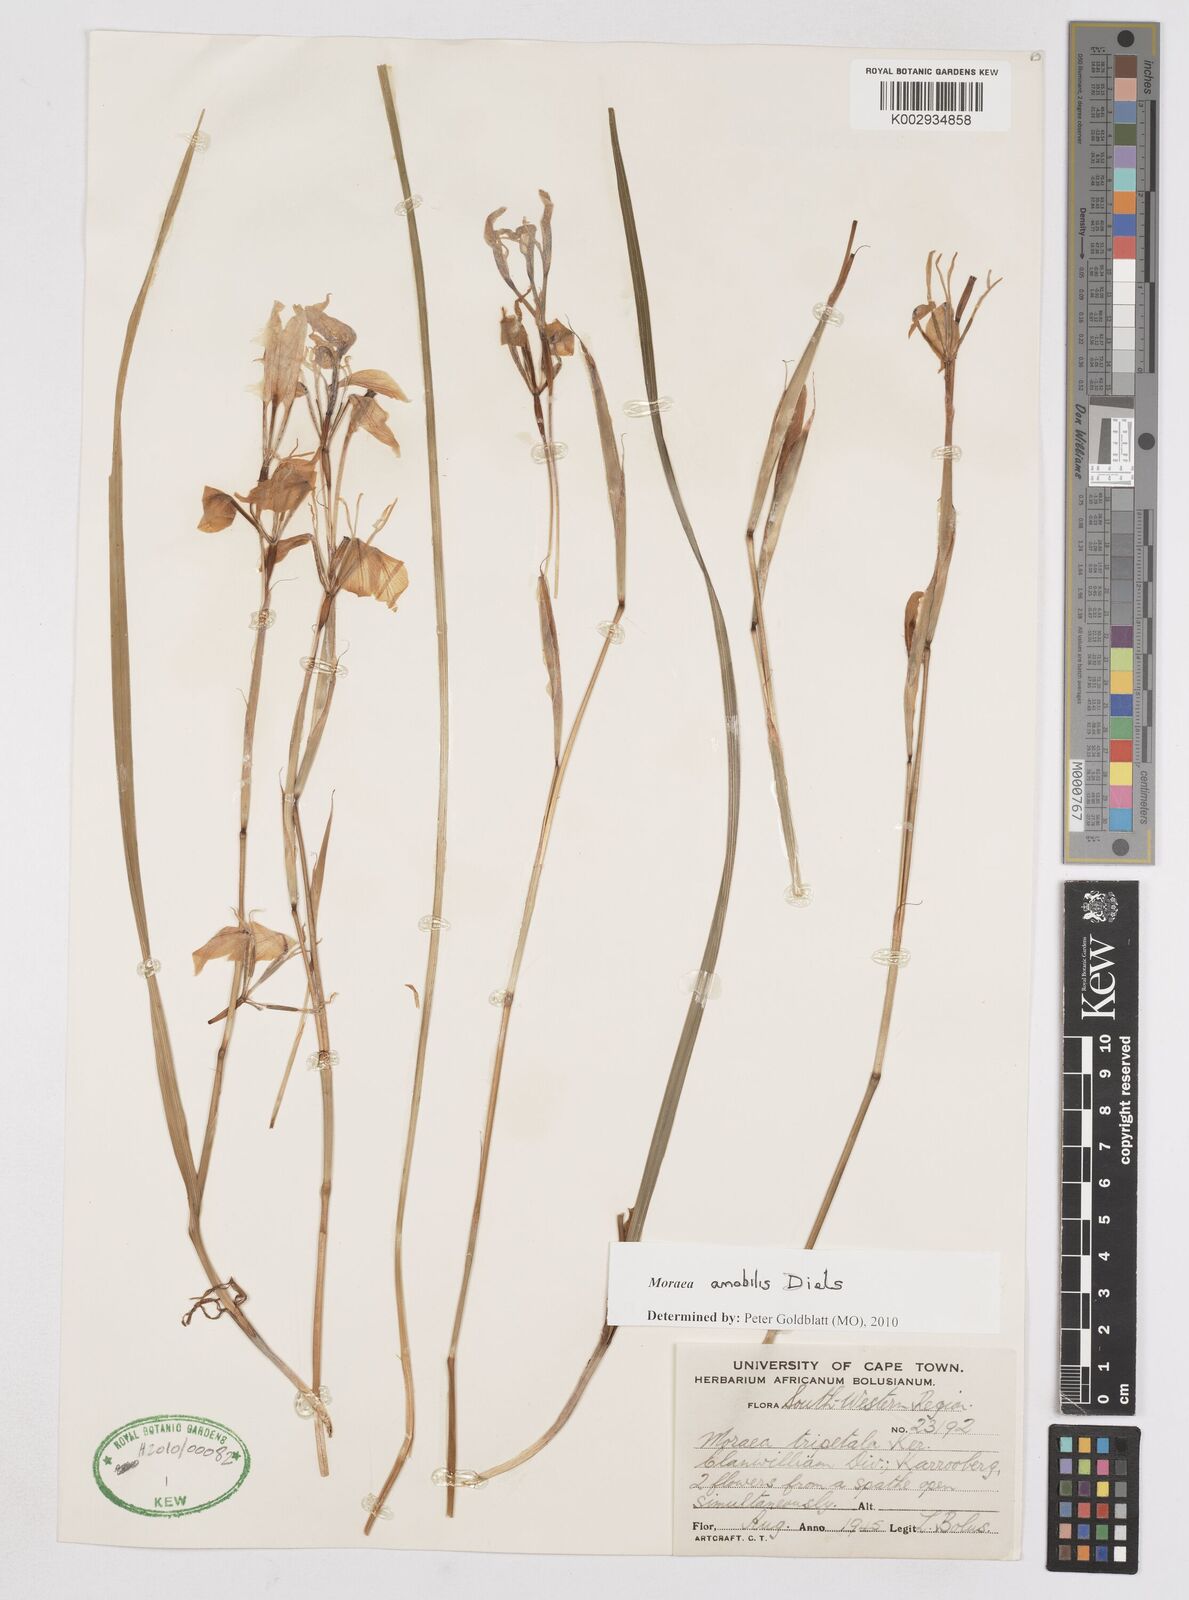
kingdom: Plantae
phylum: Tracheophyta
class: Liliopsida
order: Asparagales
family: Iridaceae
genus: Moraea
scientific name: Moraea amabilis
